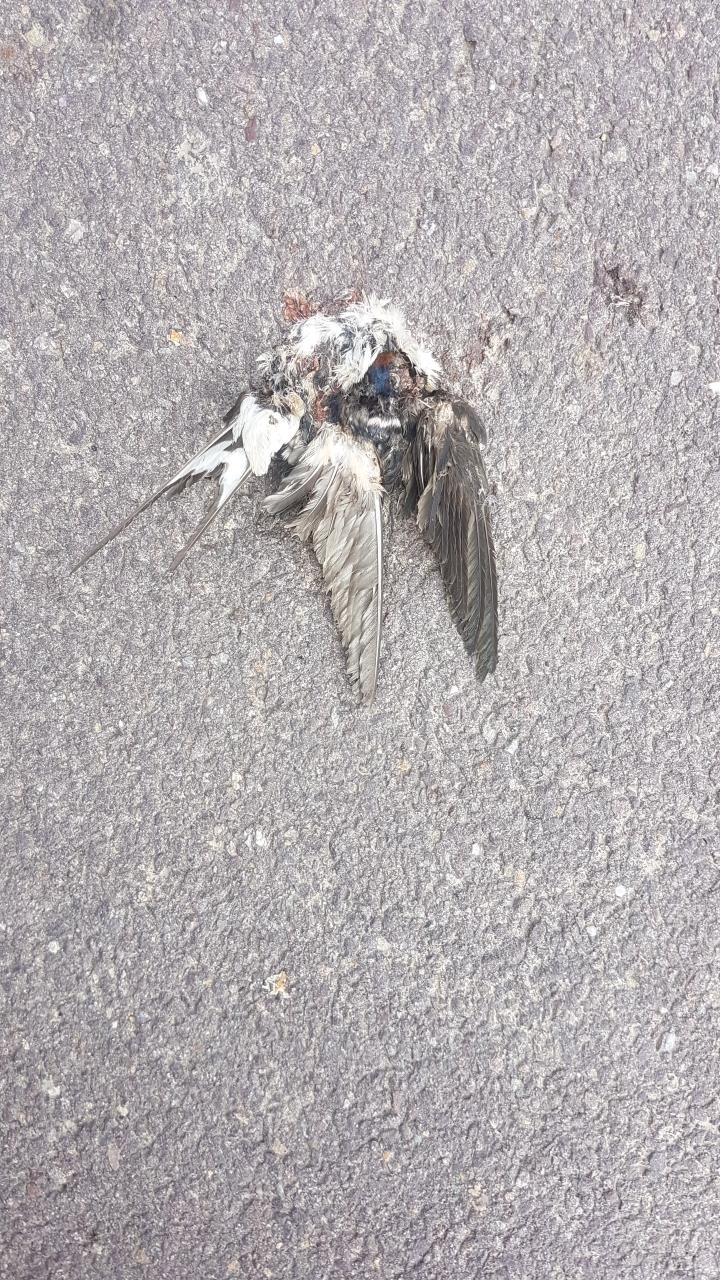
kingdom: Animalia
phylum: Chordata
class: Aves
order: Passeriformes
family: Hirundinidae
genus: Hirundo
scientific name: Hirundo rustica
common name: Barn swallow
